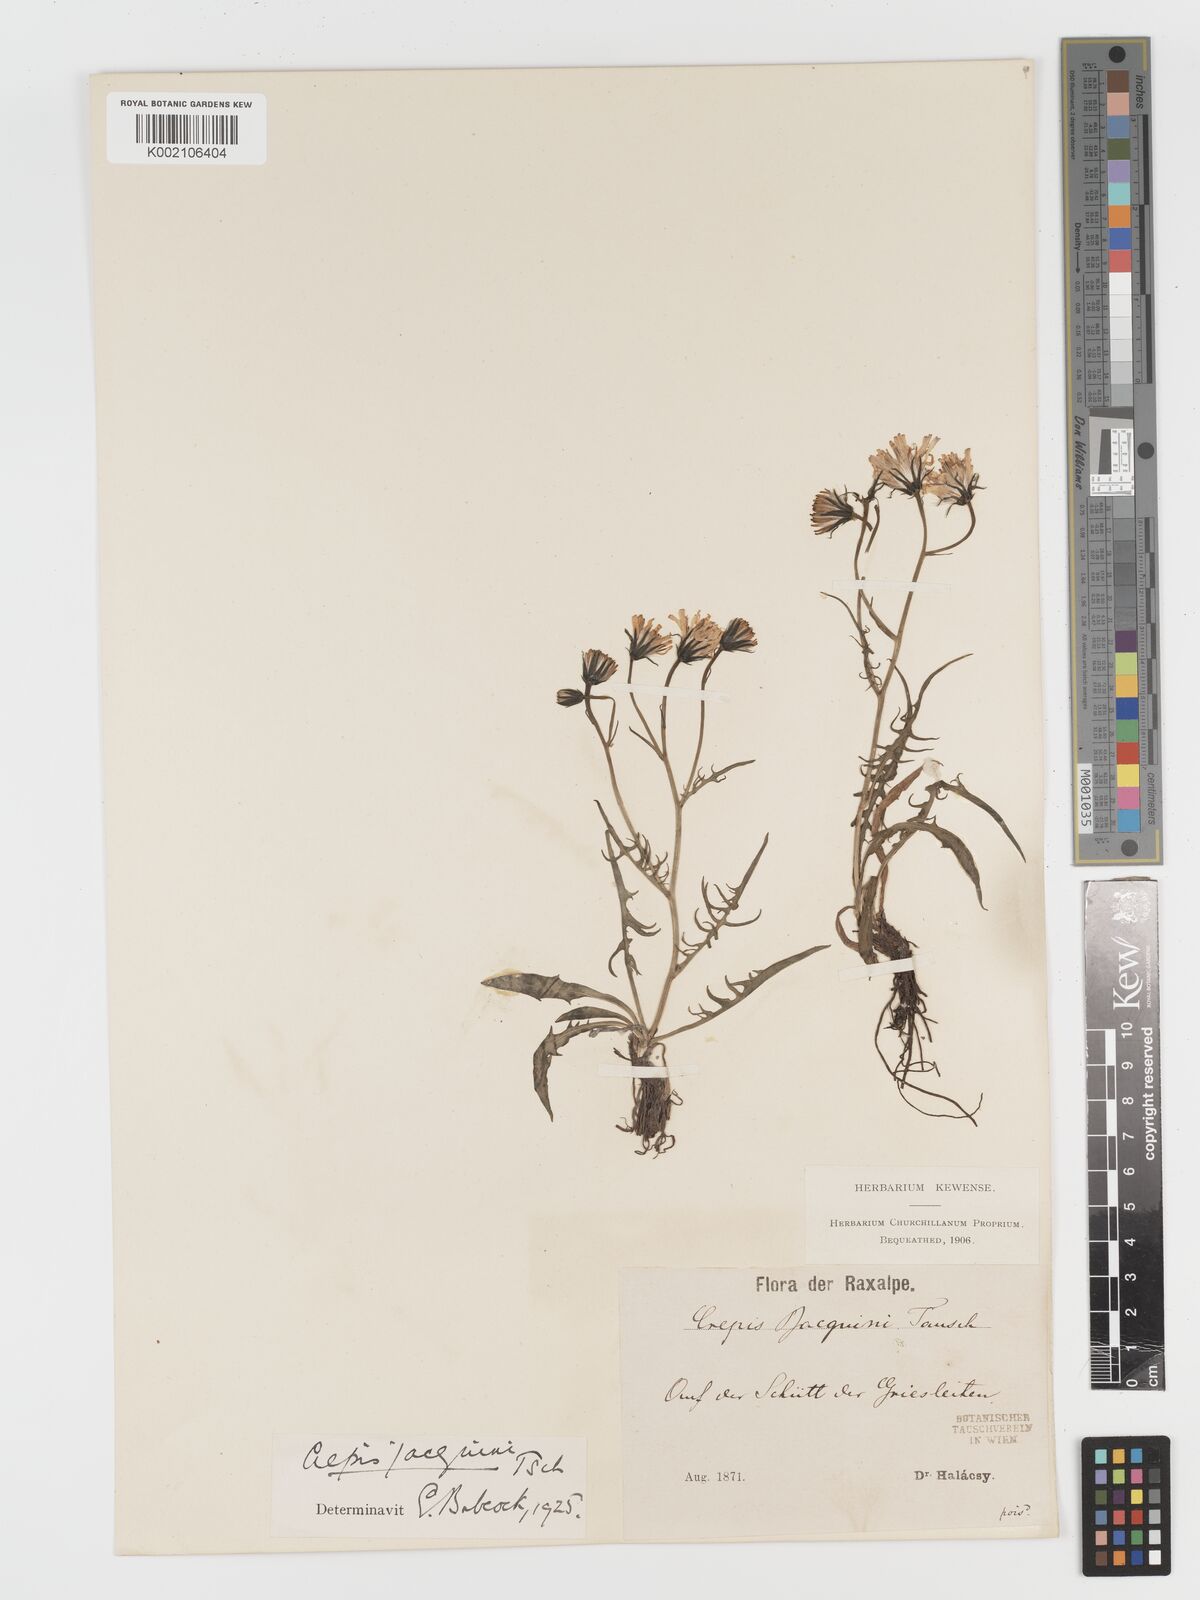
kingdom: Plantae
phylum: Tracheophyta
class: Magnoliopsida
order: Asterales
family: Asteraceae
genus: Crepis
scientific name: Crepis jacquinii
